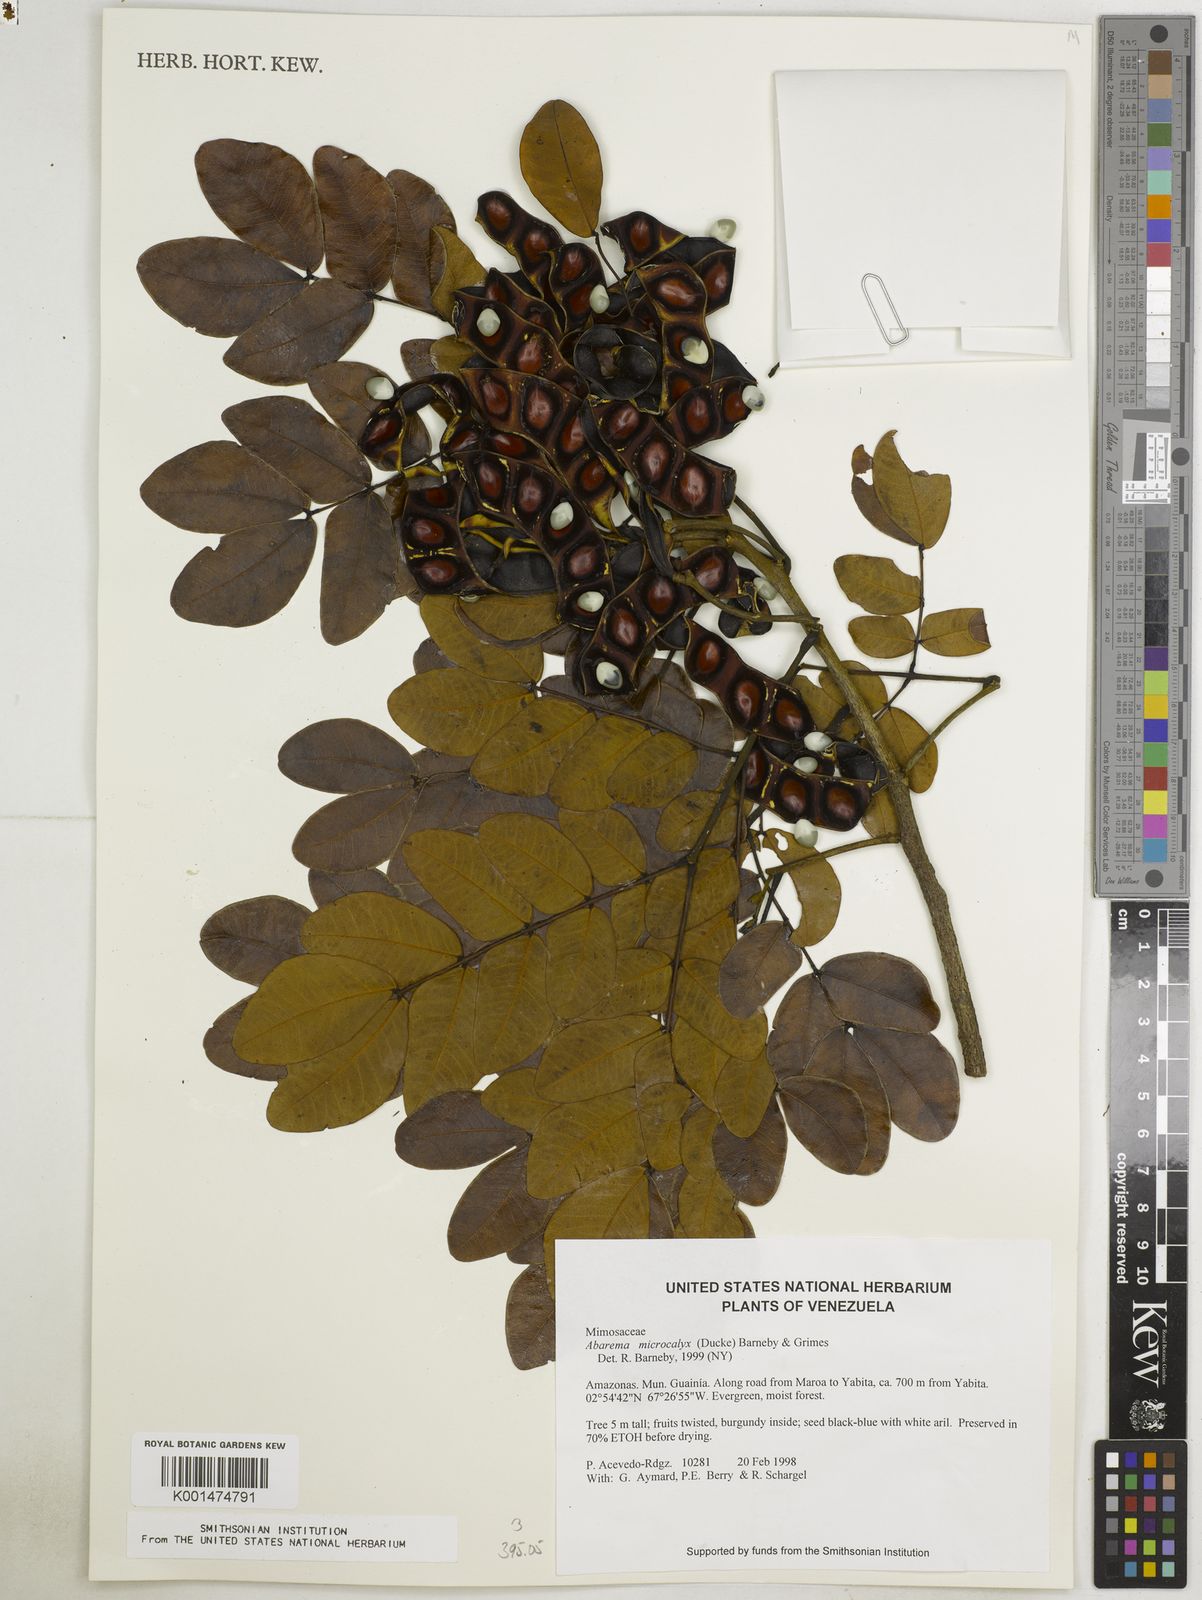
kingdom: Plantae
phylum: Tracheophyta
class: Magnoliopsida
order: Fabales
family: Fabaceae
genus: Jupunba
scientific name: Jupunba microcalyx
